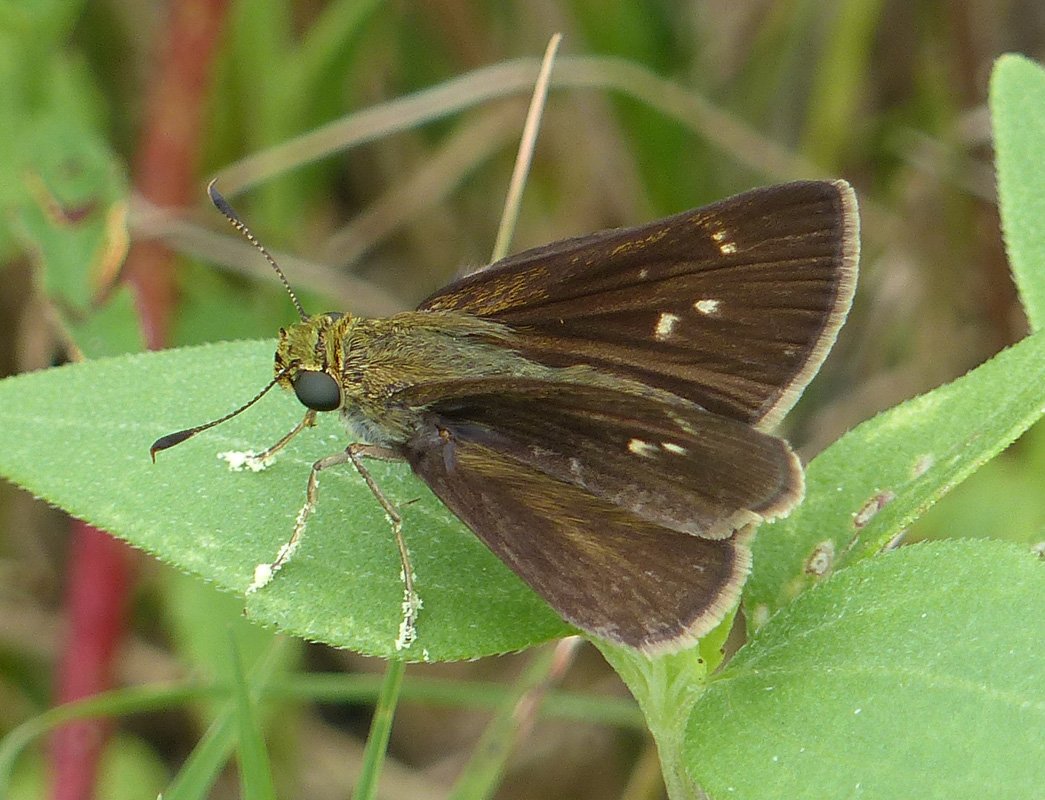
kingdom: Animalia
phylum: Arthropoda
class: Insecta
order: Lepidoptera
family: Hesperiidae
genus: Euphyes
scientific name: Euphyes vestris
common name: Dun Skipper
